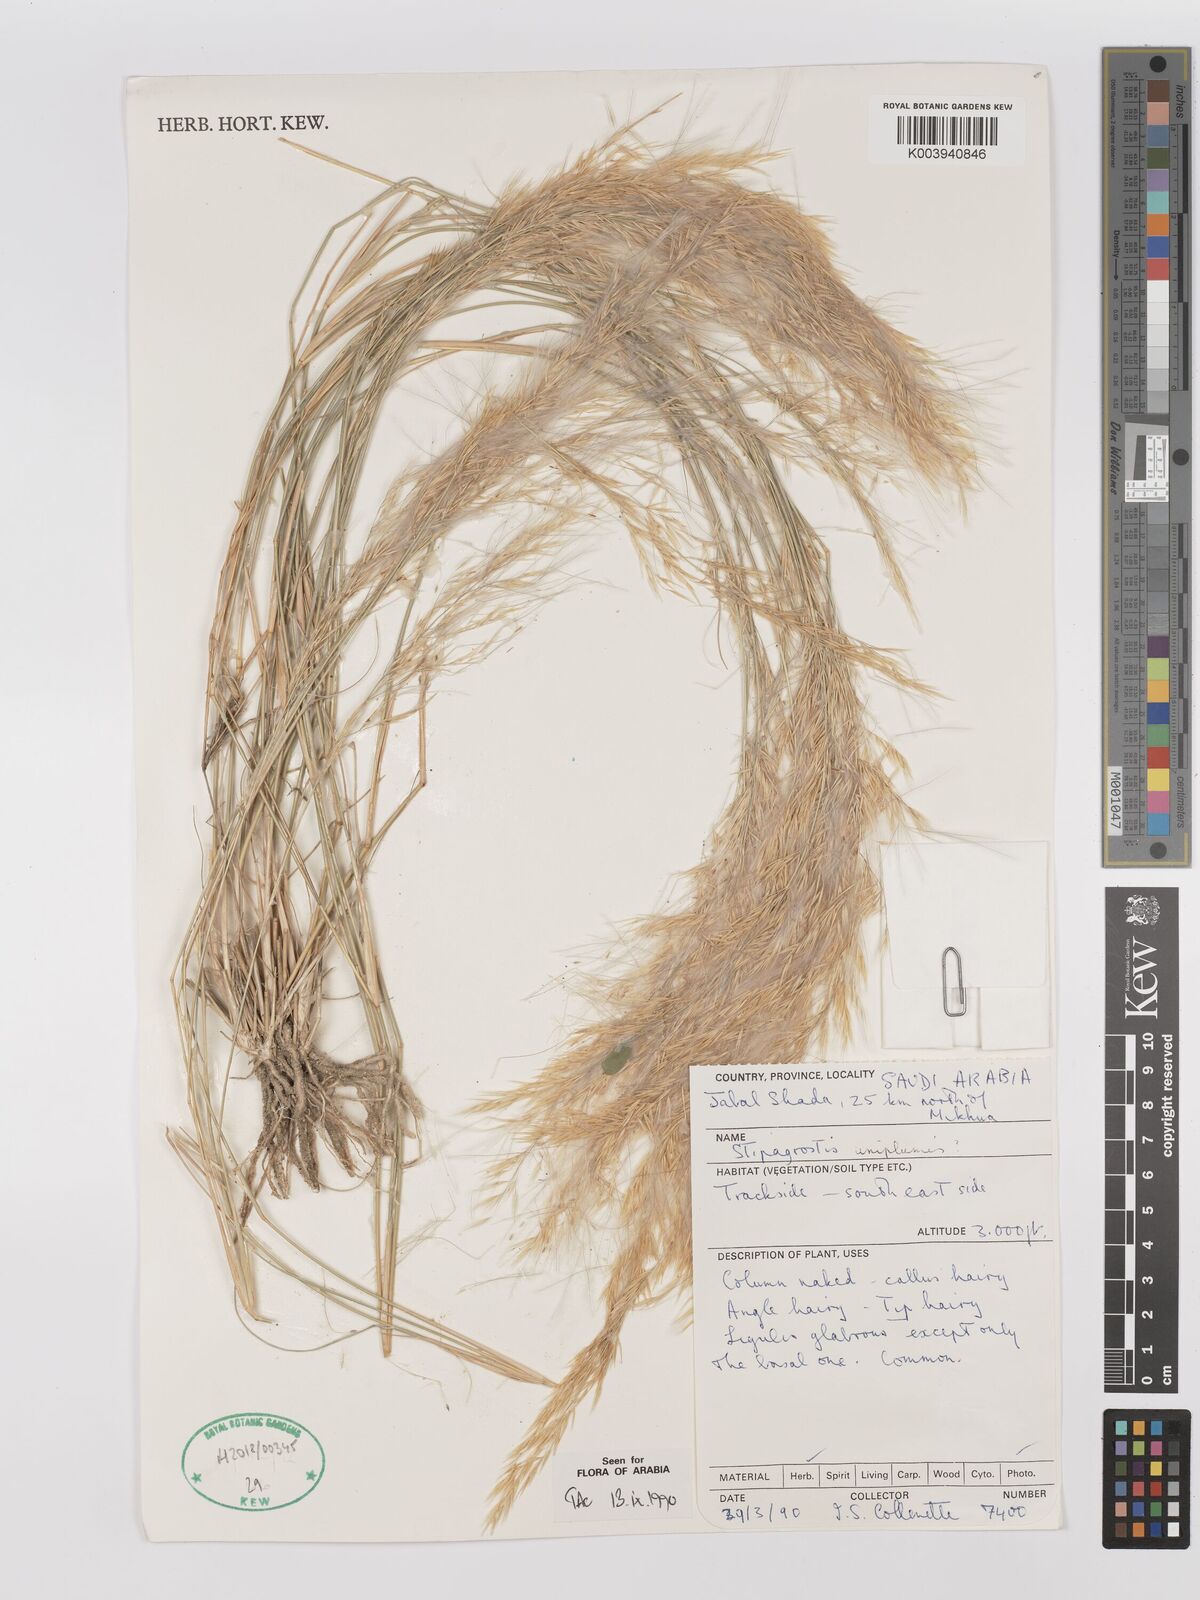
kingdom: Plantae
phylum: Tracheophyta
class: Liliopsida
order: Poales
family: Poaceae
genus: Stipagrostis
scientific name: Stipagrostis uniplumis
